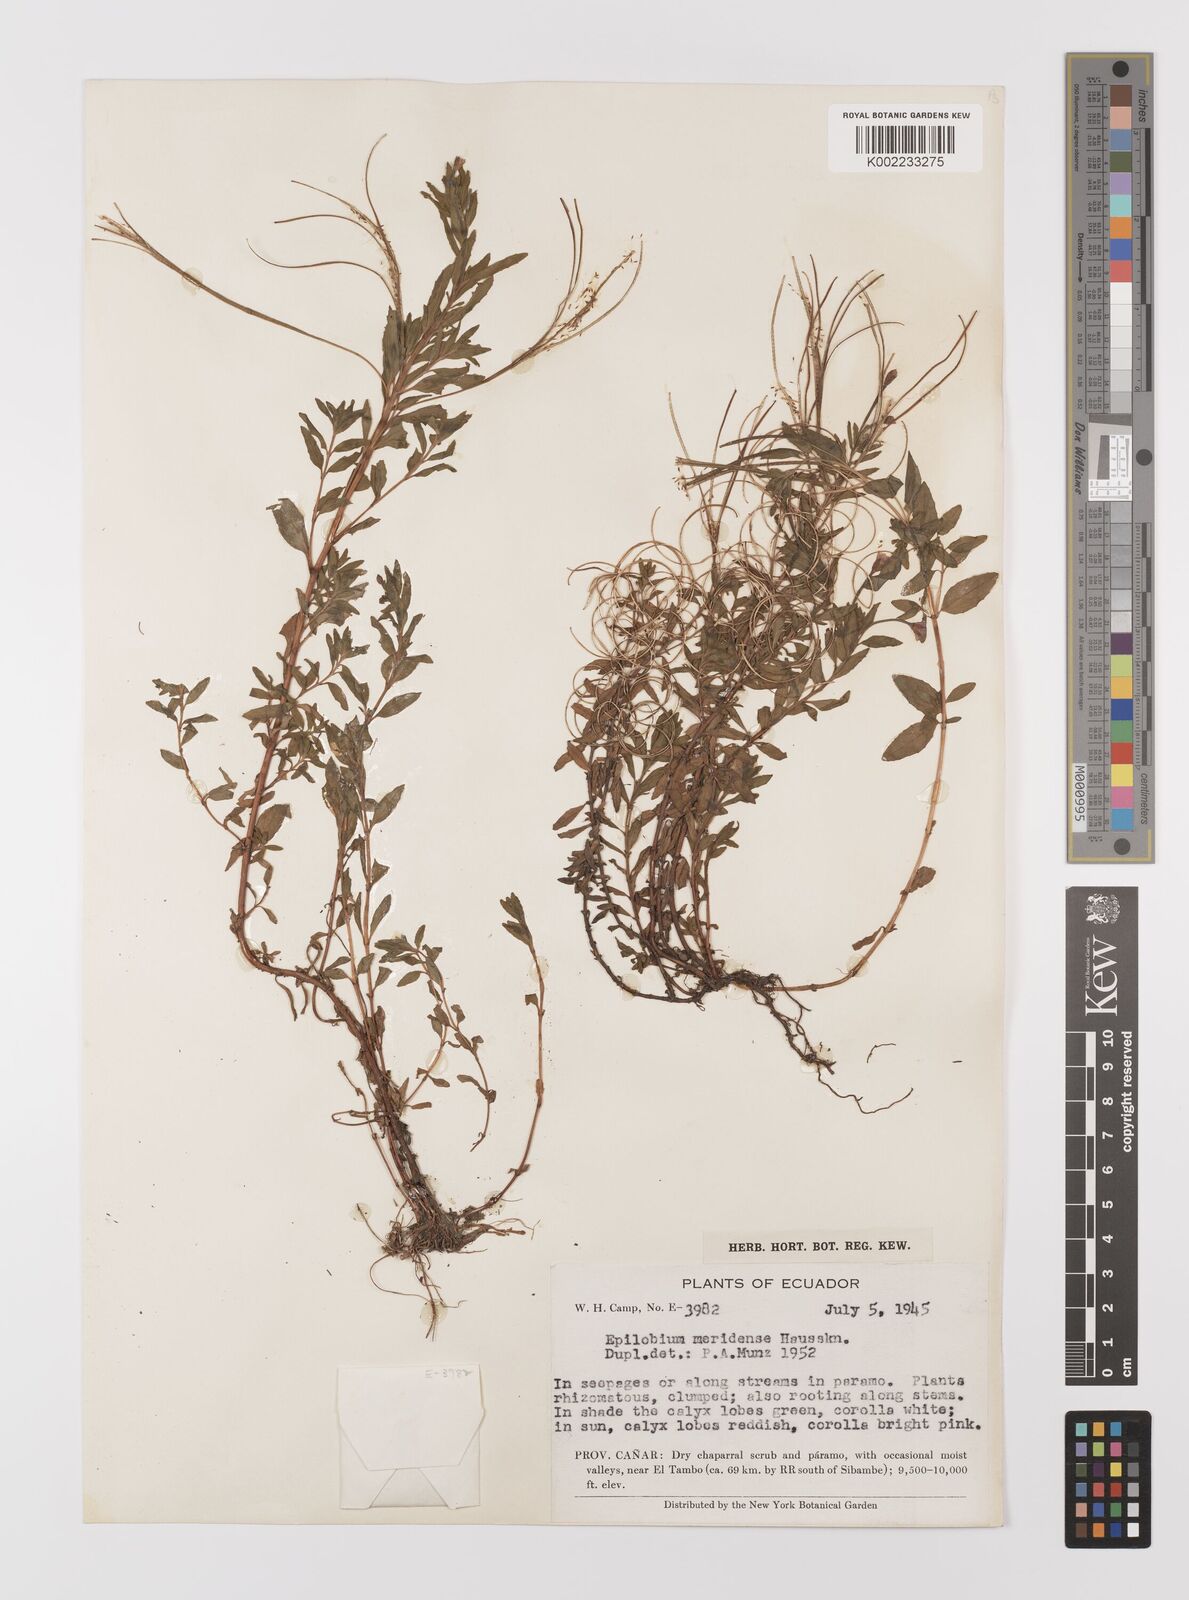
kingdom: Plantae
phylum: Tracheophyta
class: Magnoliopsida
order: Myrtales
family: Onagraceae
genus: Epilobium
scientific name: Epilobium denticulatum
